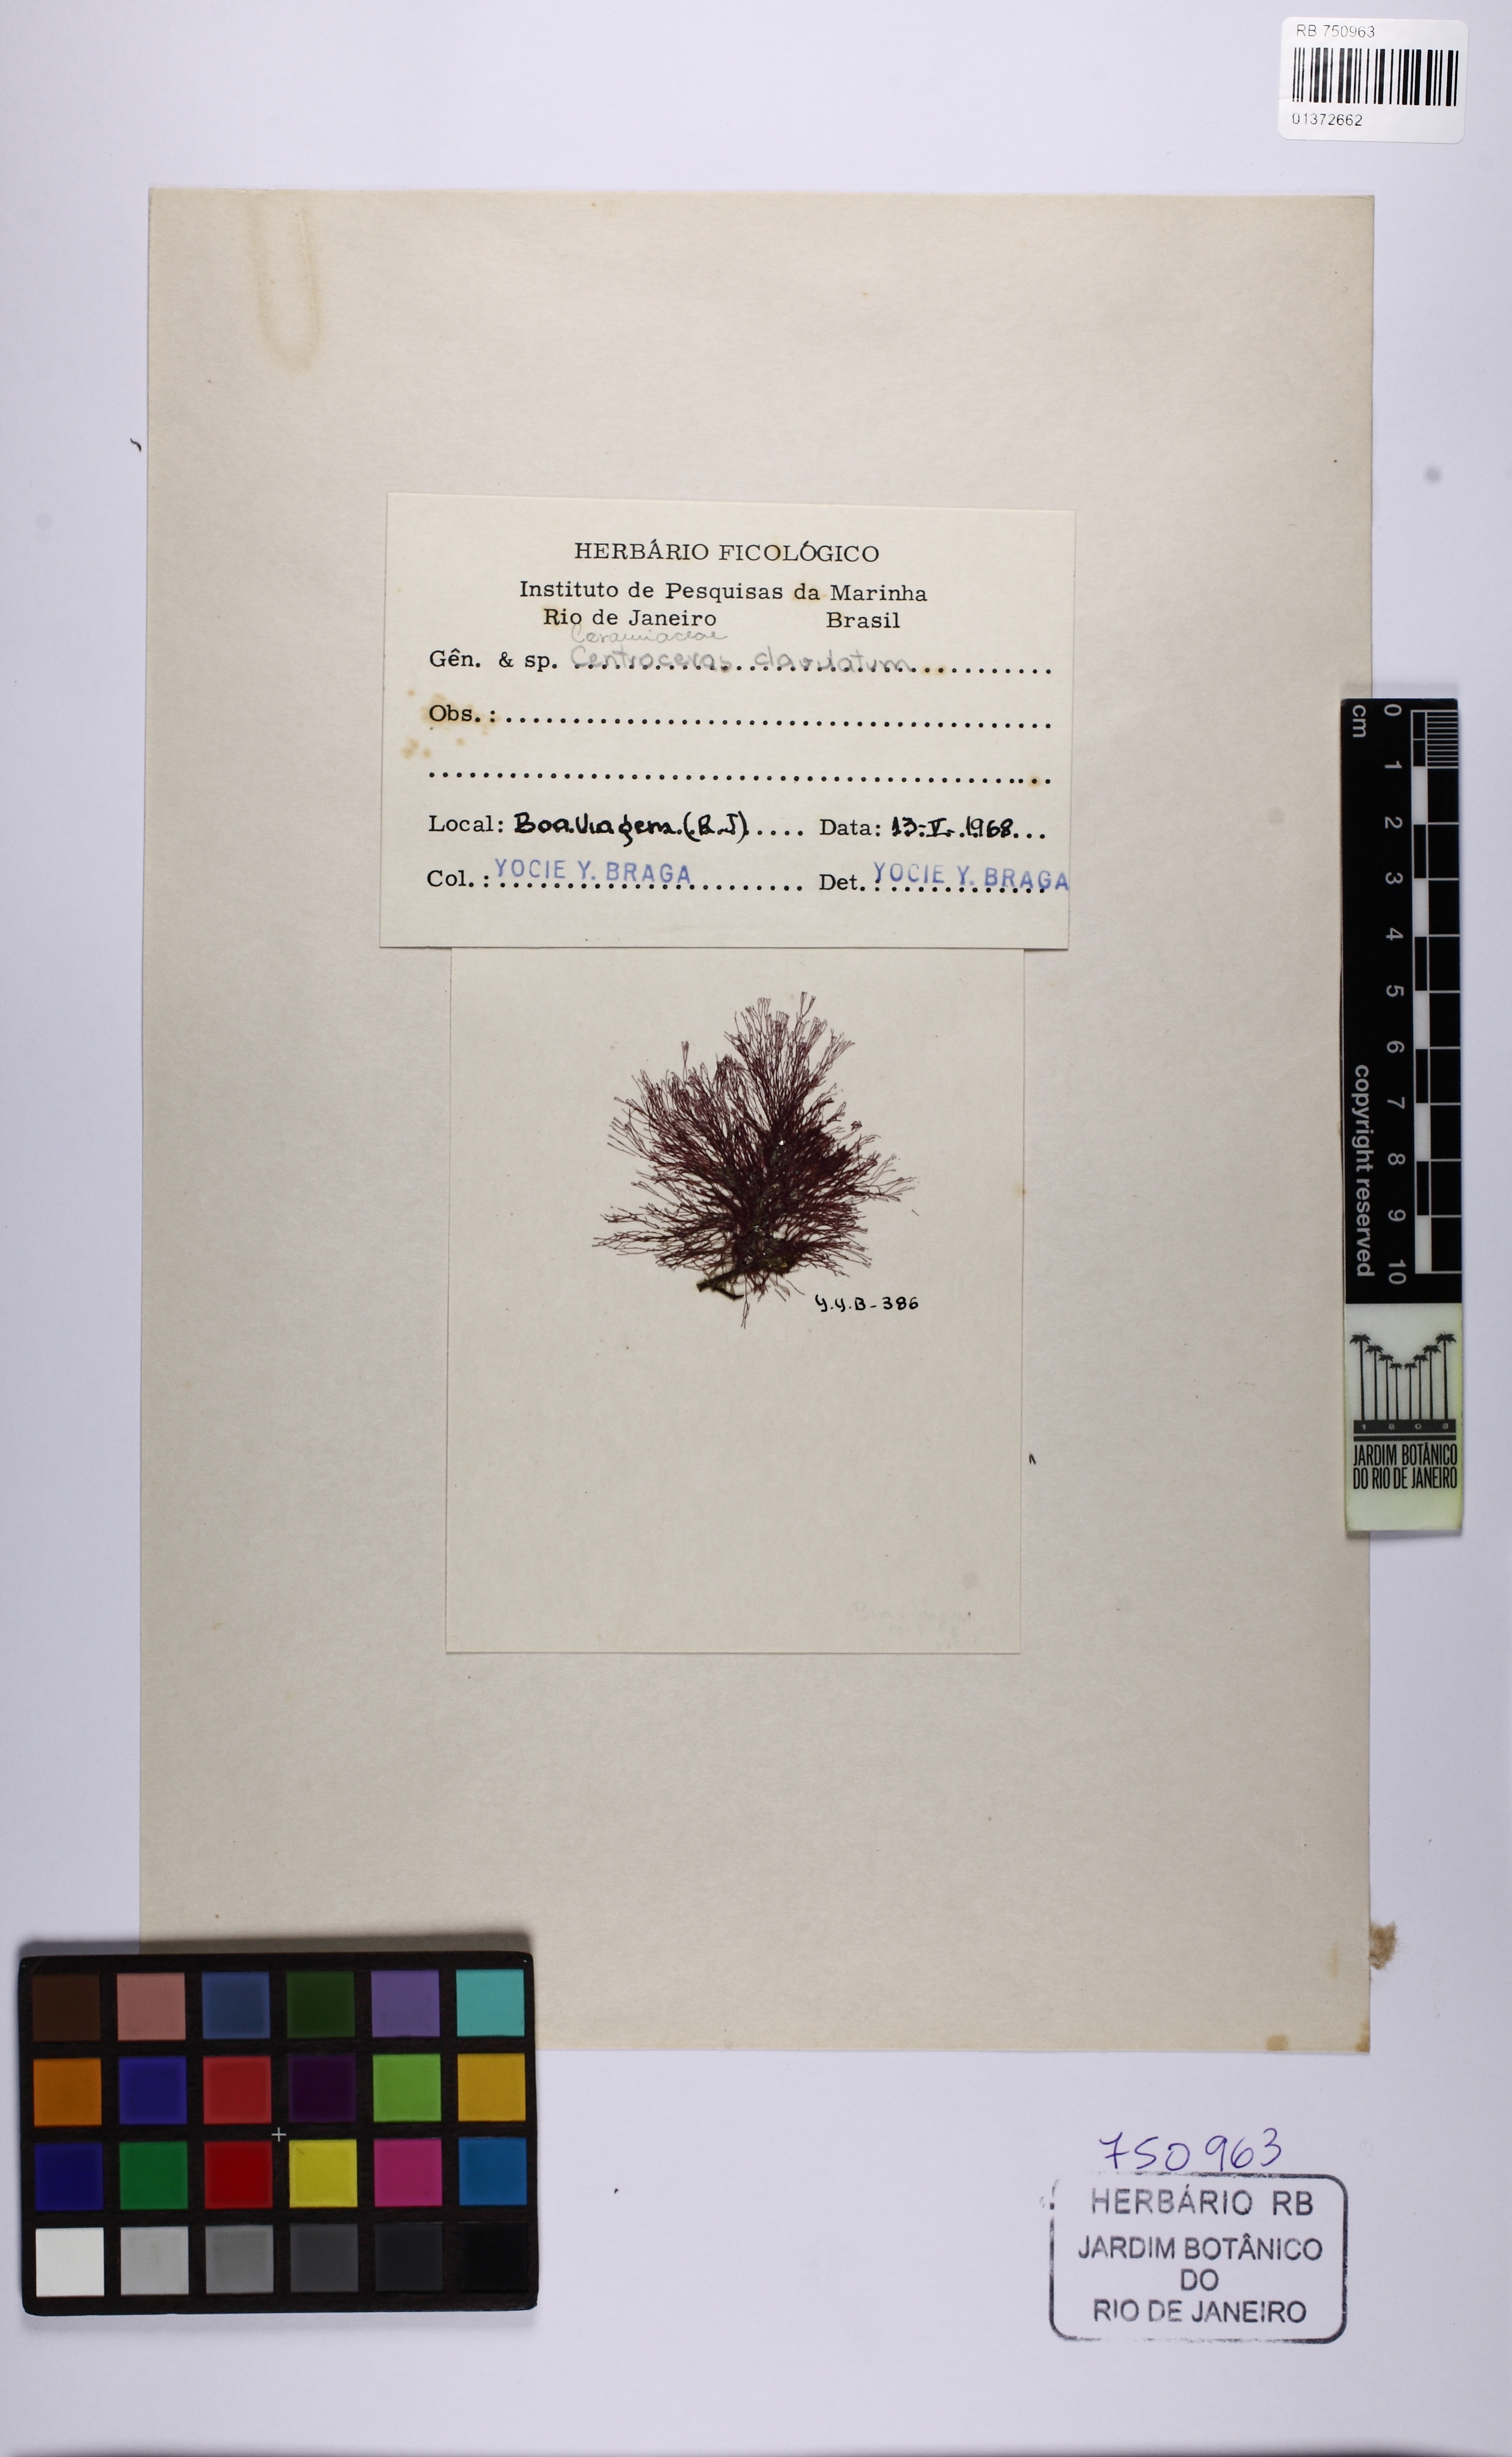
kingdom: Plantae
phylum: Rhodophyta
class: Florideophyceae
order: Ceramiales
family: Ceramiaceae
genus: Centroceras
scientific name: Centroceras clavulatum
